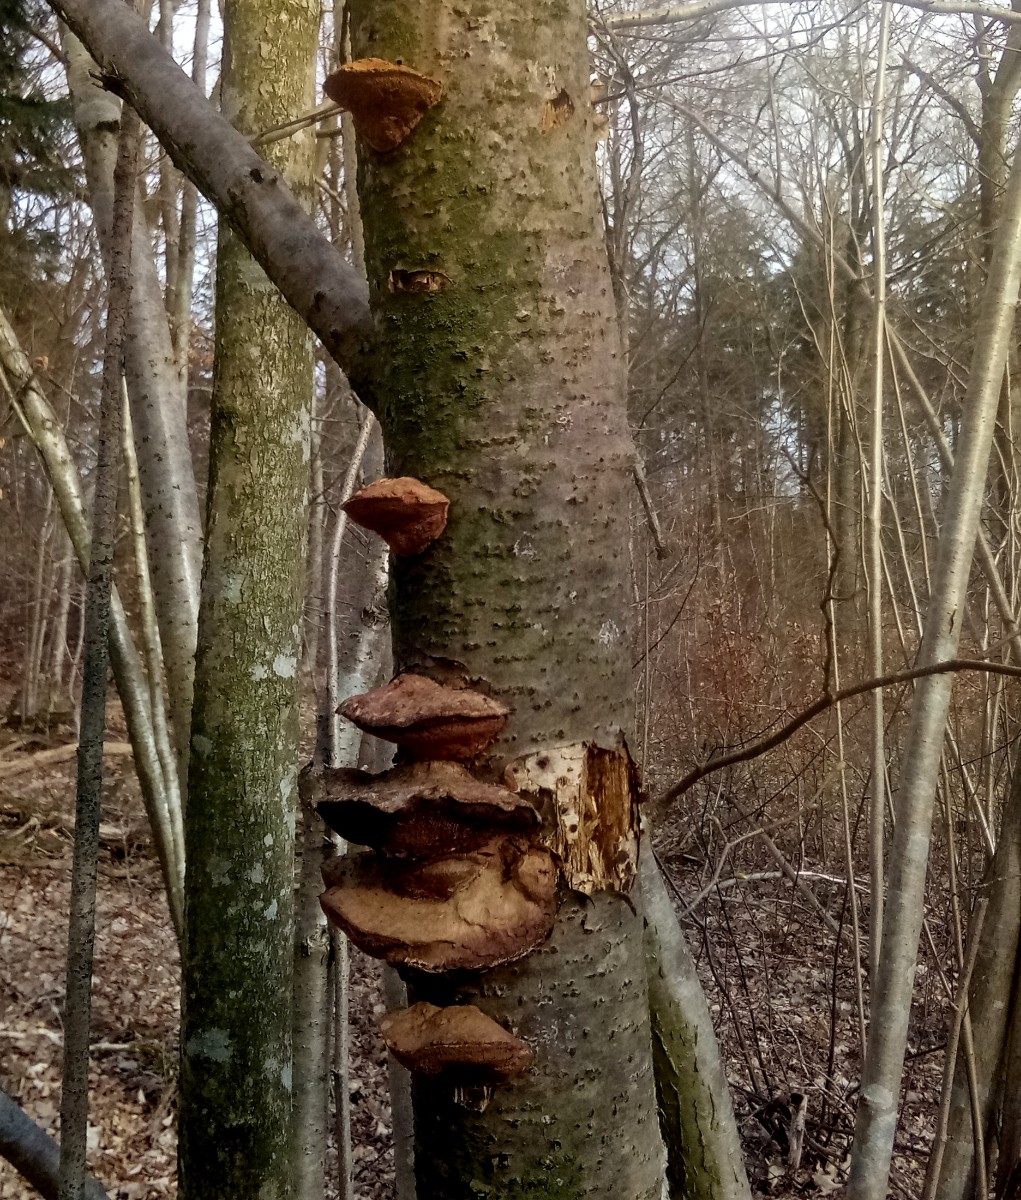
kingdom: Fungi
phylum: Basidiomycota
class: Agaricomycetes
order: Polyporales
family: Phanerochaetaceae
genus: Hapalopilus
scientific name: Hapalopilus rutilans
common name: rødlig okkerporesvamp
